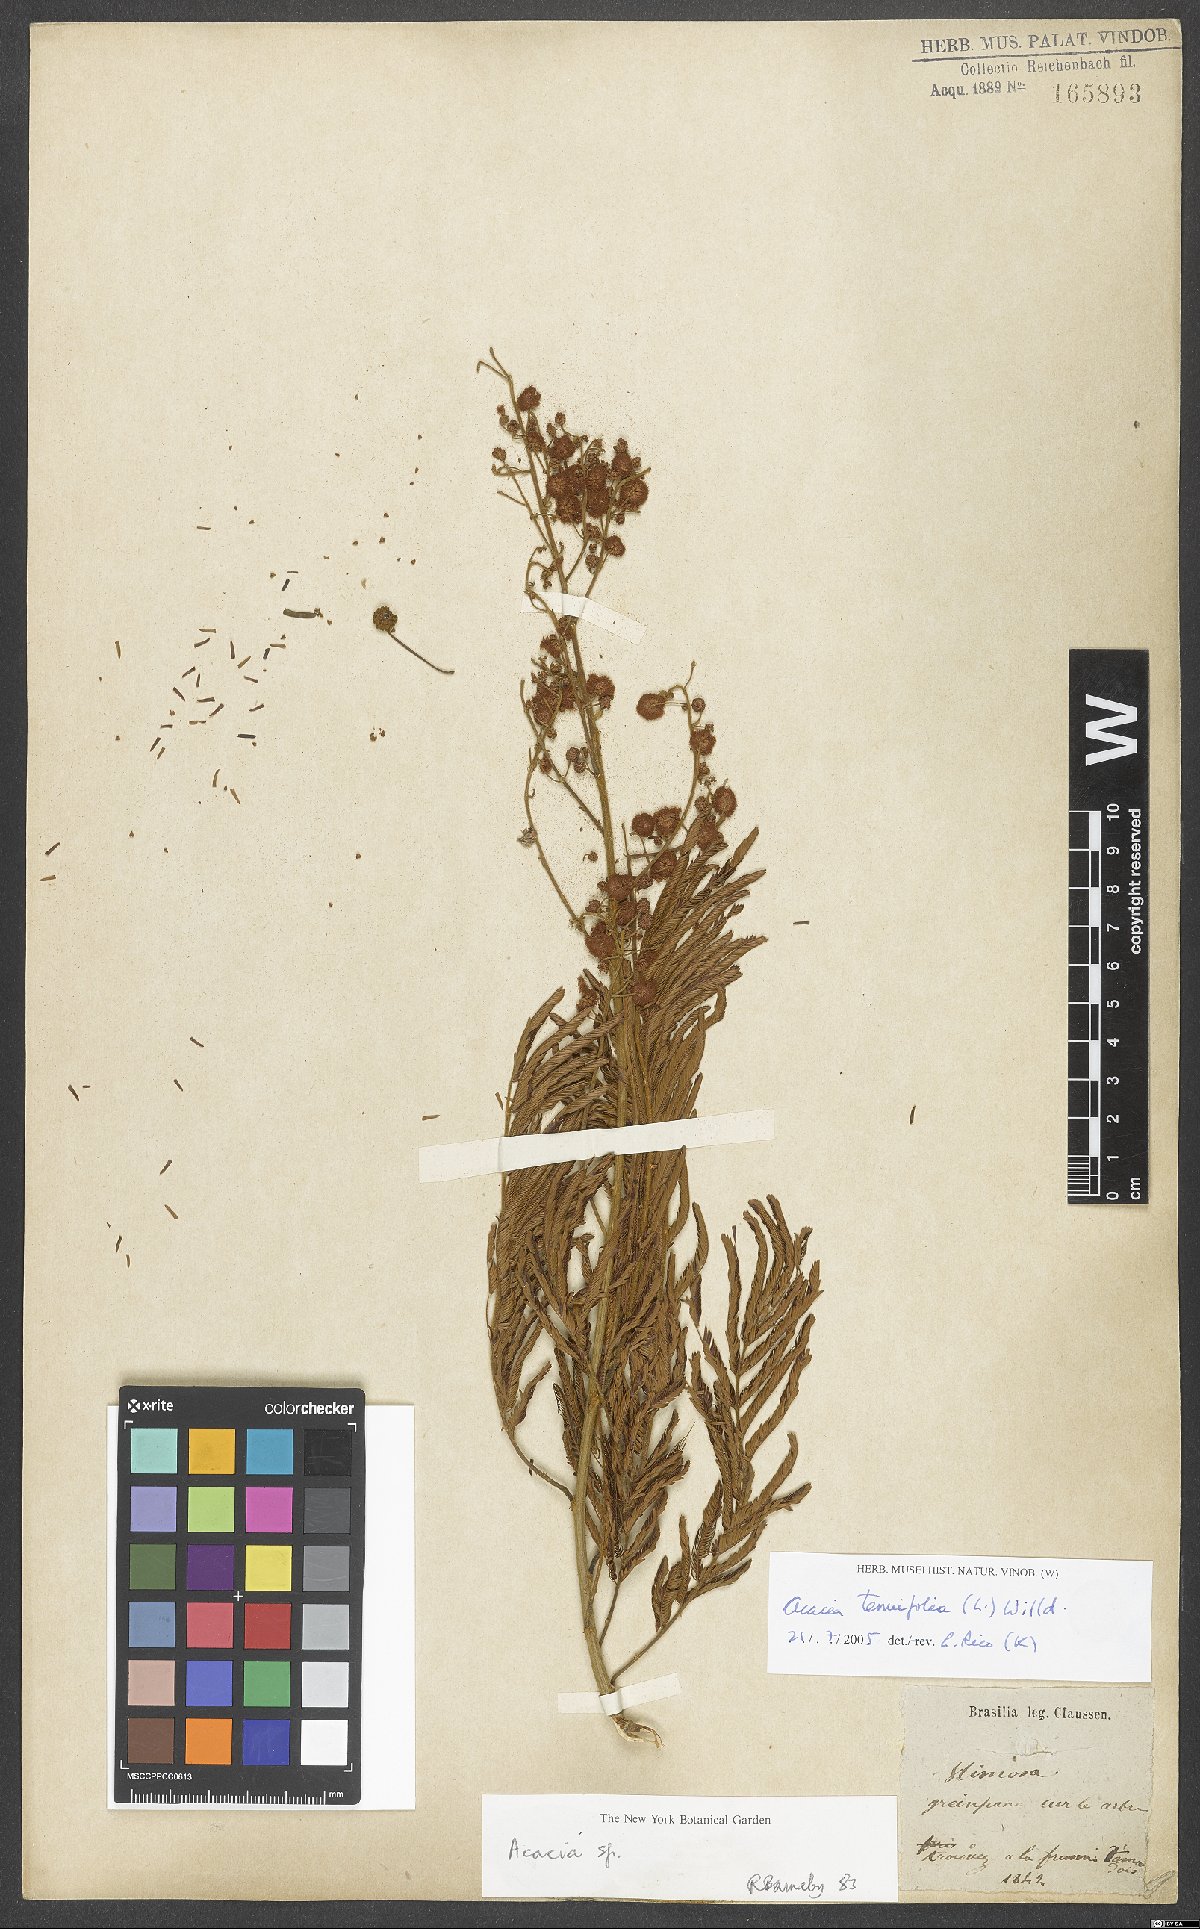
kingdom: Plantae
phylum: Tracheophyta
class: Magnoliopsida
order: Fabales
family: Fabaceae
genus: Senegalia
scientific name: Senegalia tenuifolia
